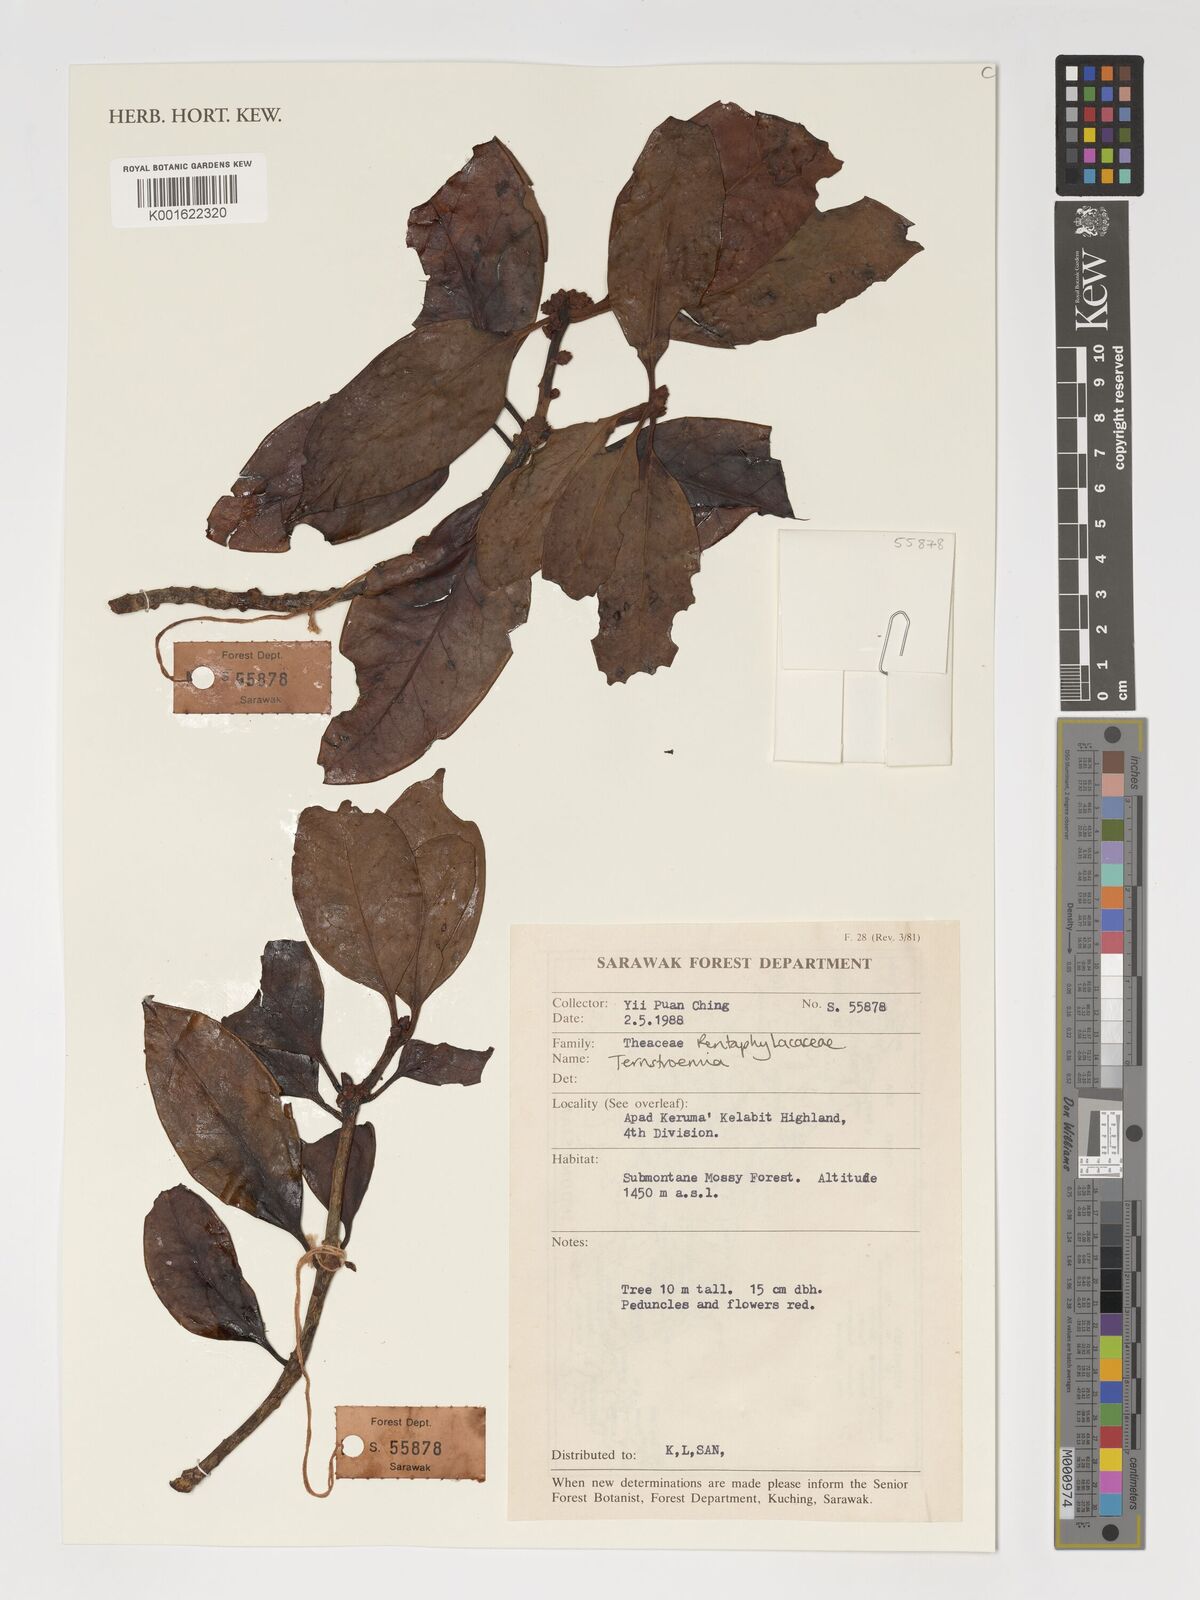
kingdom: Plantae
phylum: Tracheophyta
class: Magnoliopsida
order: Ericales
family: Pentaphylacaceae
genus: Ternstroemia
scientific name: Ternstroemia
